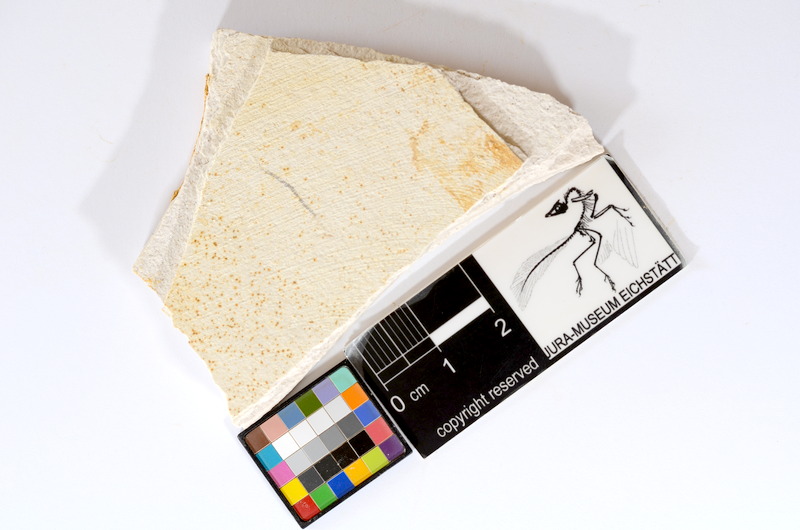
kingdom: Animalia
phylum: Chordata
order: Salmoniformes
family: Orthogonikleithridae
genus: Orthogonikleithrus
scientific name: Orthogonikleithrus hoelli
